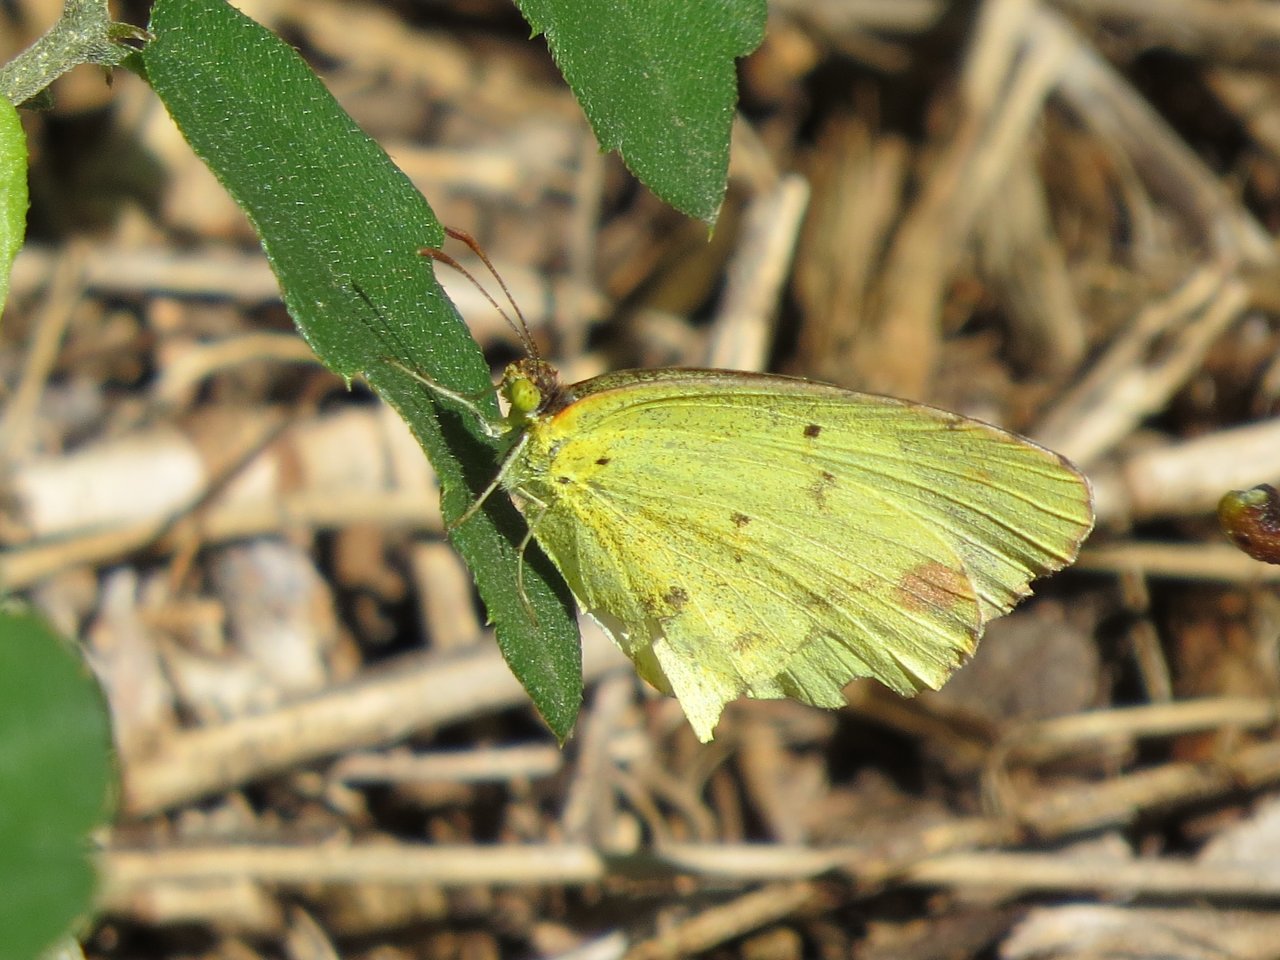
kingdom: Animalia
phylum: Arthropoda
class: Insecta
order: Lepidoptera
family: Pieridae
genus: Pyrisitia
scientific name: Pyrisitia lisa
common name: Little Yellow
